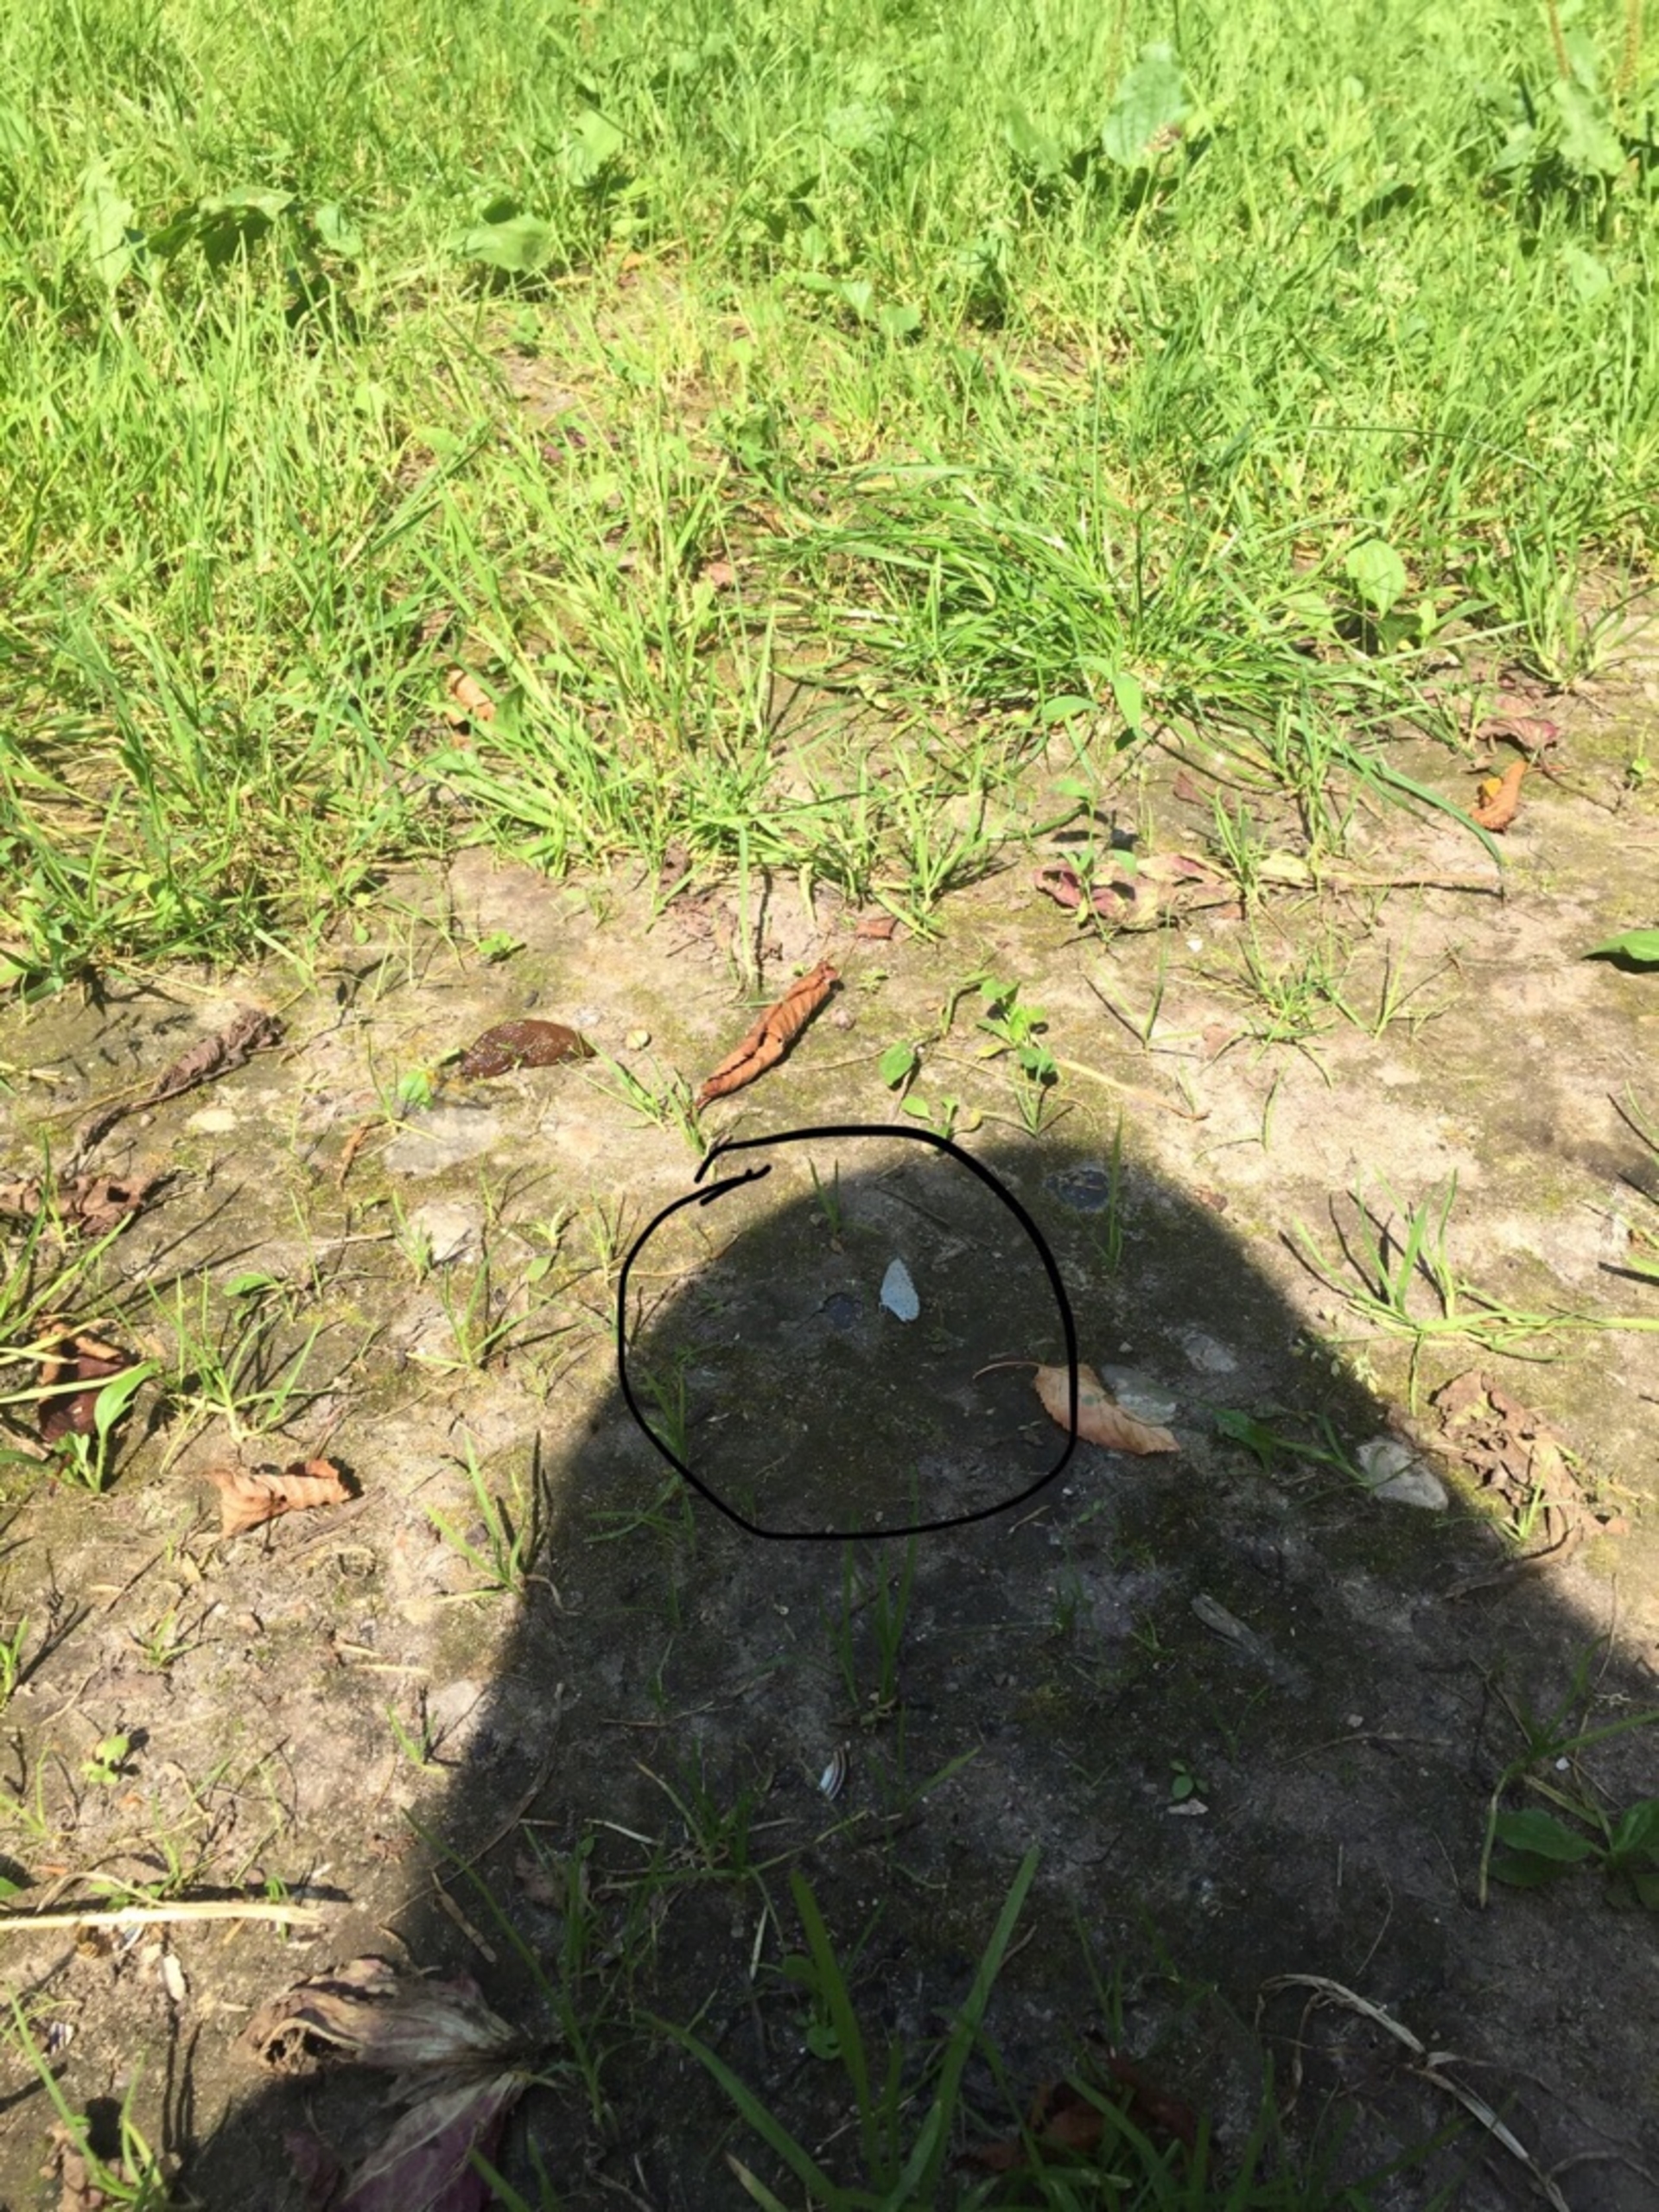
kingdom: Animalia
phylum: Arthropoda
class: Insecta
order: Lepidoptera
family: Lycaenidae
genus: Celastrina
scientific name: Celastrina argiolus
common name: Skovblåfugl
